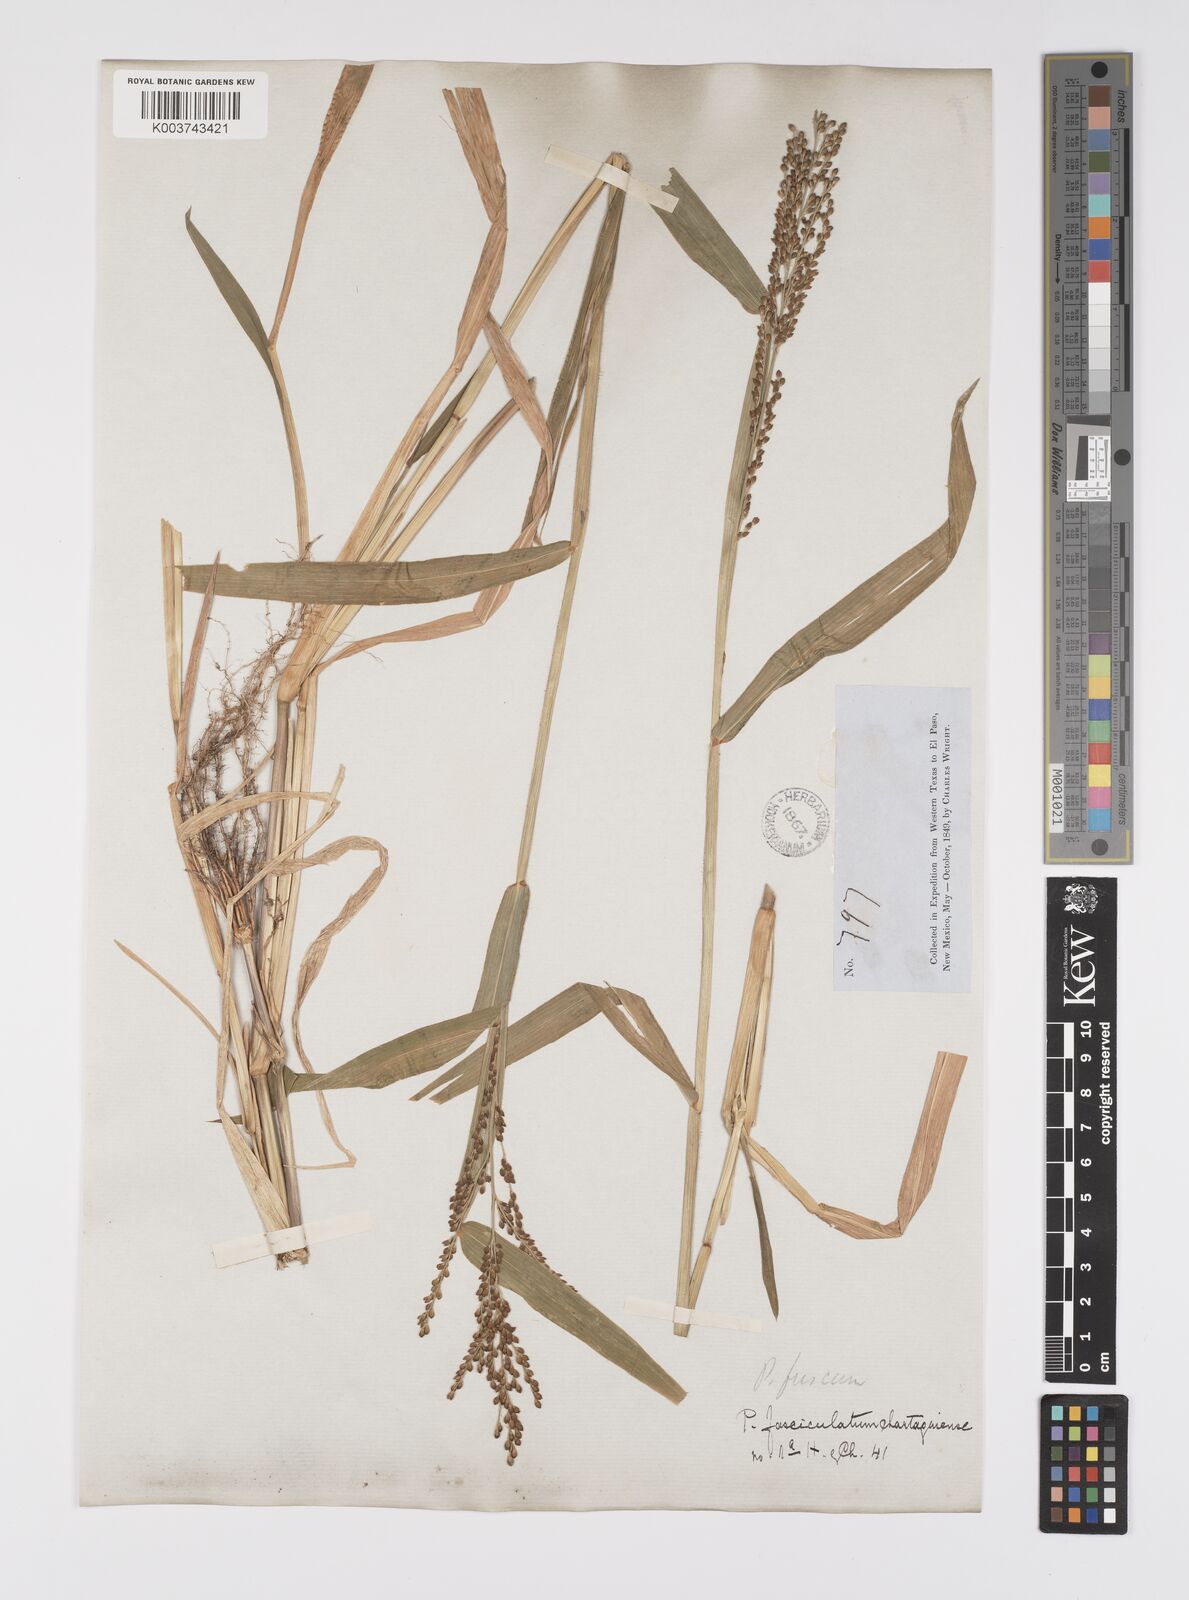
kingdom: Plantae
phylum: Tracheophyta
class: Liliopsida
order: Poales
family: Poaceae
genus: Urochloa
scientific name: Urochloa fusca
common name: Browntop signal grass
